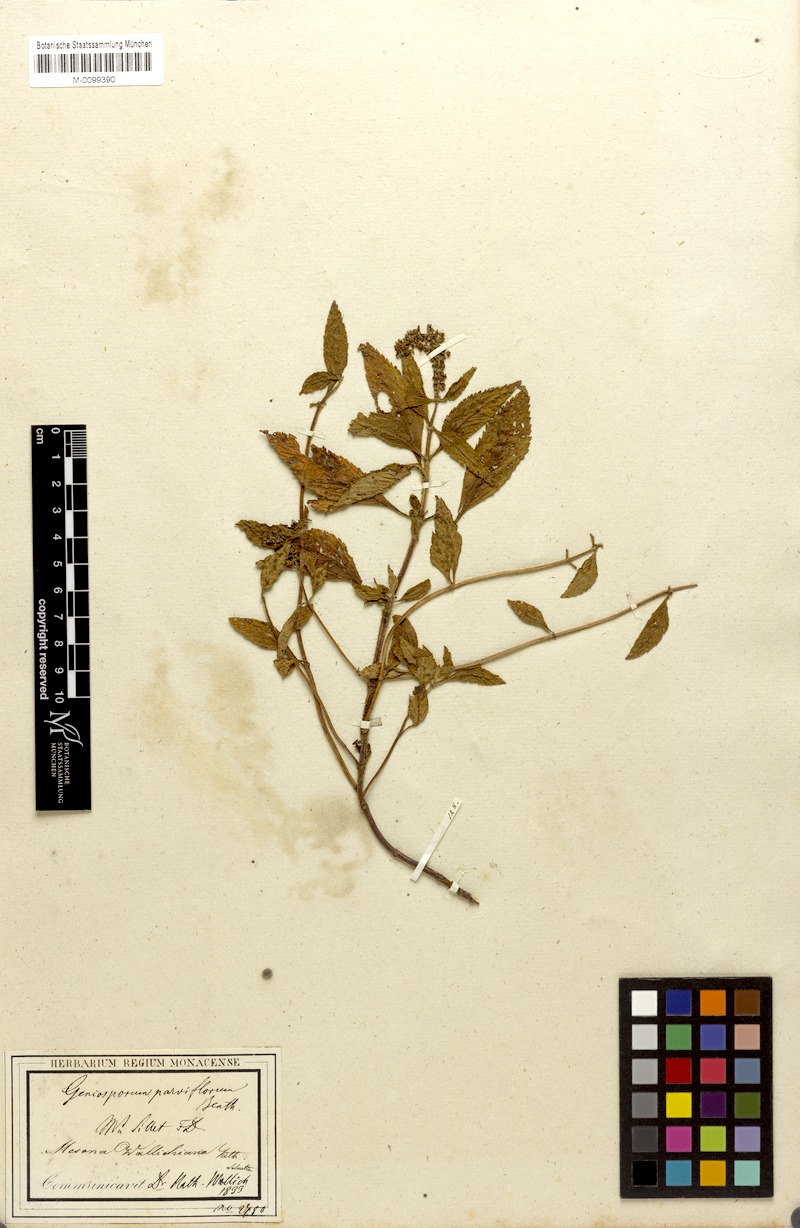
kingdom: Plantae
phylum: Tracheophyta
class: Magnoliopsida
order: Lamiales
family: Lamiaceae
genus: Platostoma
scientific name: Platostoma palustre
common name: Black cincau
